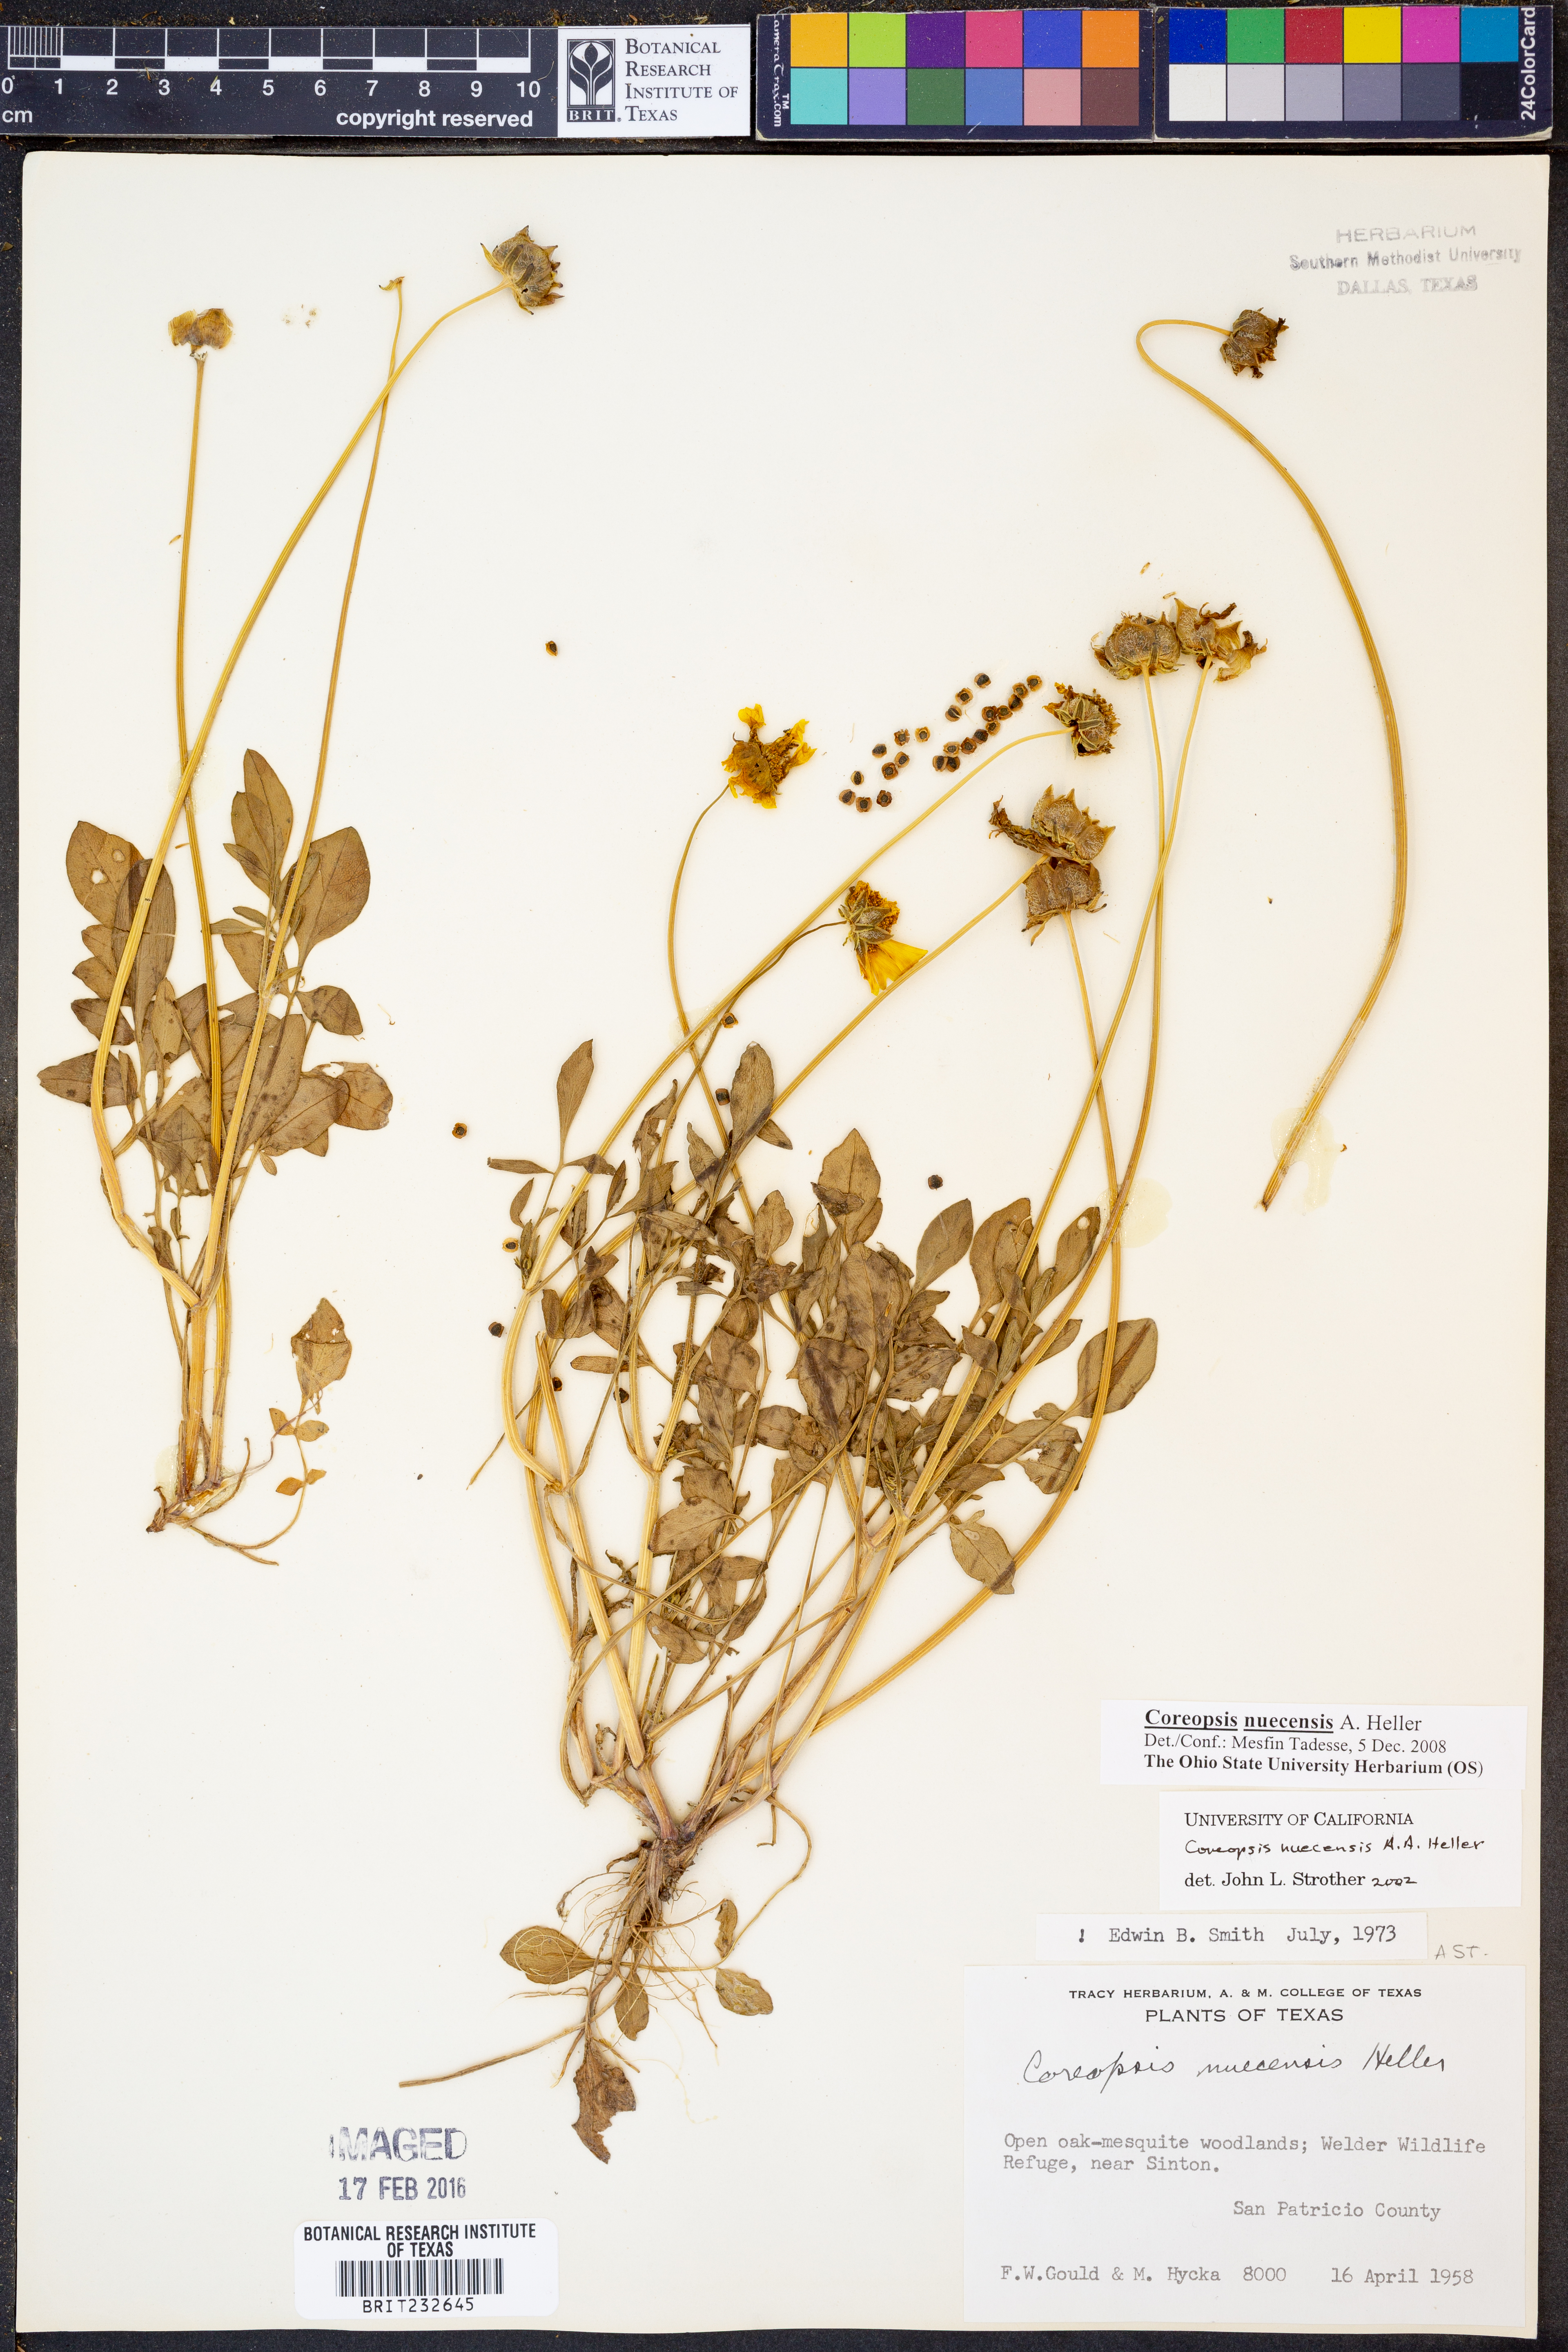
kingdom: Plantae
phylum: Tracheophyta
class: Magnoliopsida
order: Asterales
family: Asteraceae
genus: Coreopsis
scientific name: Coreopsis nuecensis
